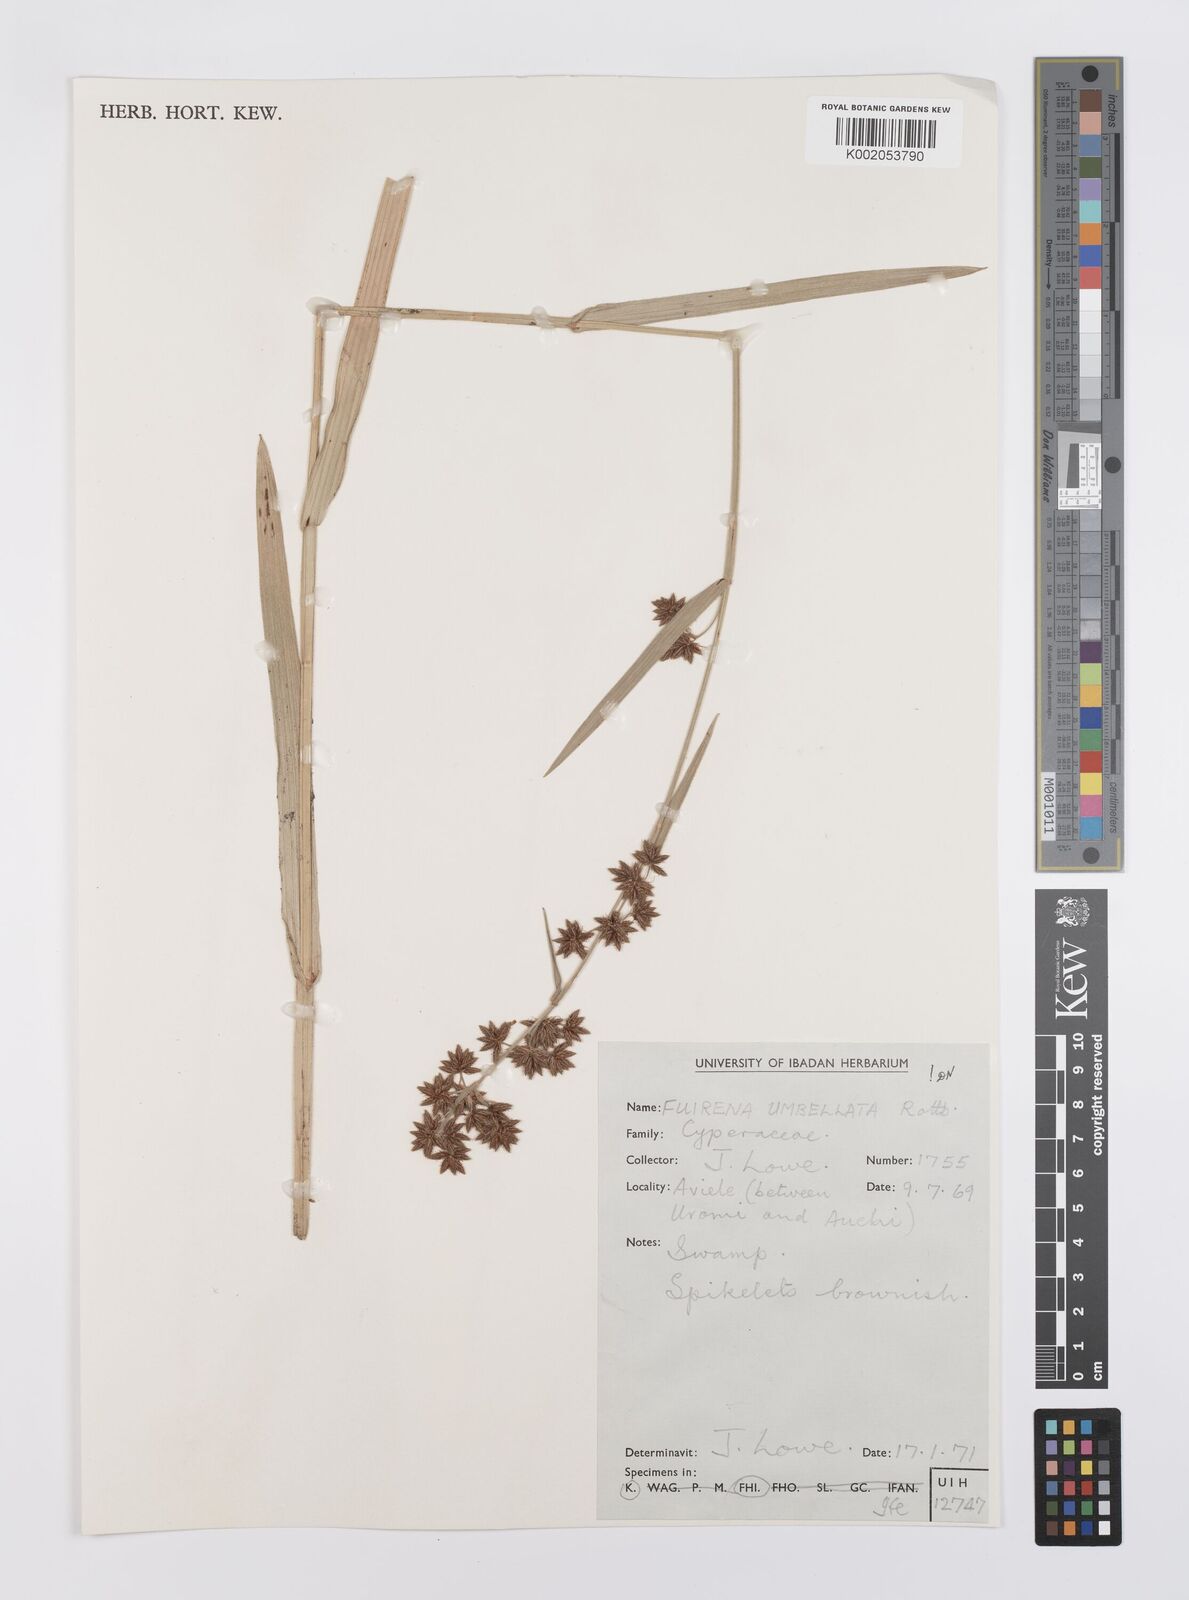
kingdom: Plantae
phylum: Tracheophyta
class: Liliopsida
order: Poales
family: Cyperaceae
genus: Fuirena
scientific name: Fuirena umbellata
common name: Yefen
